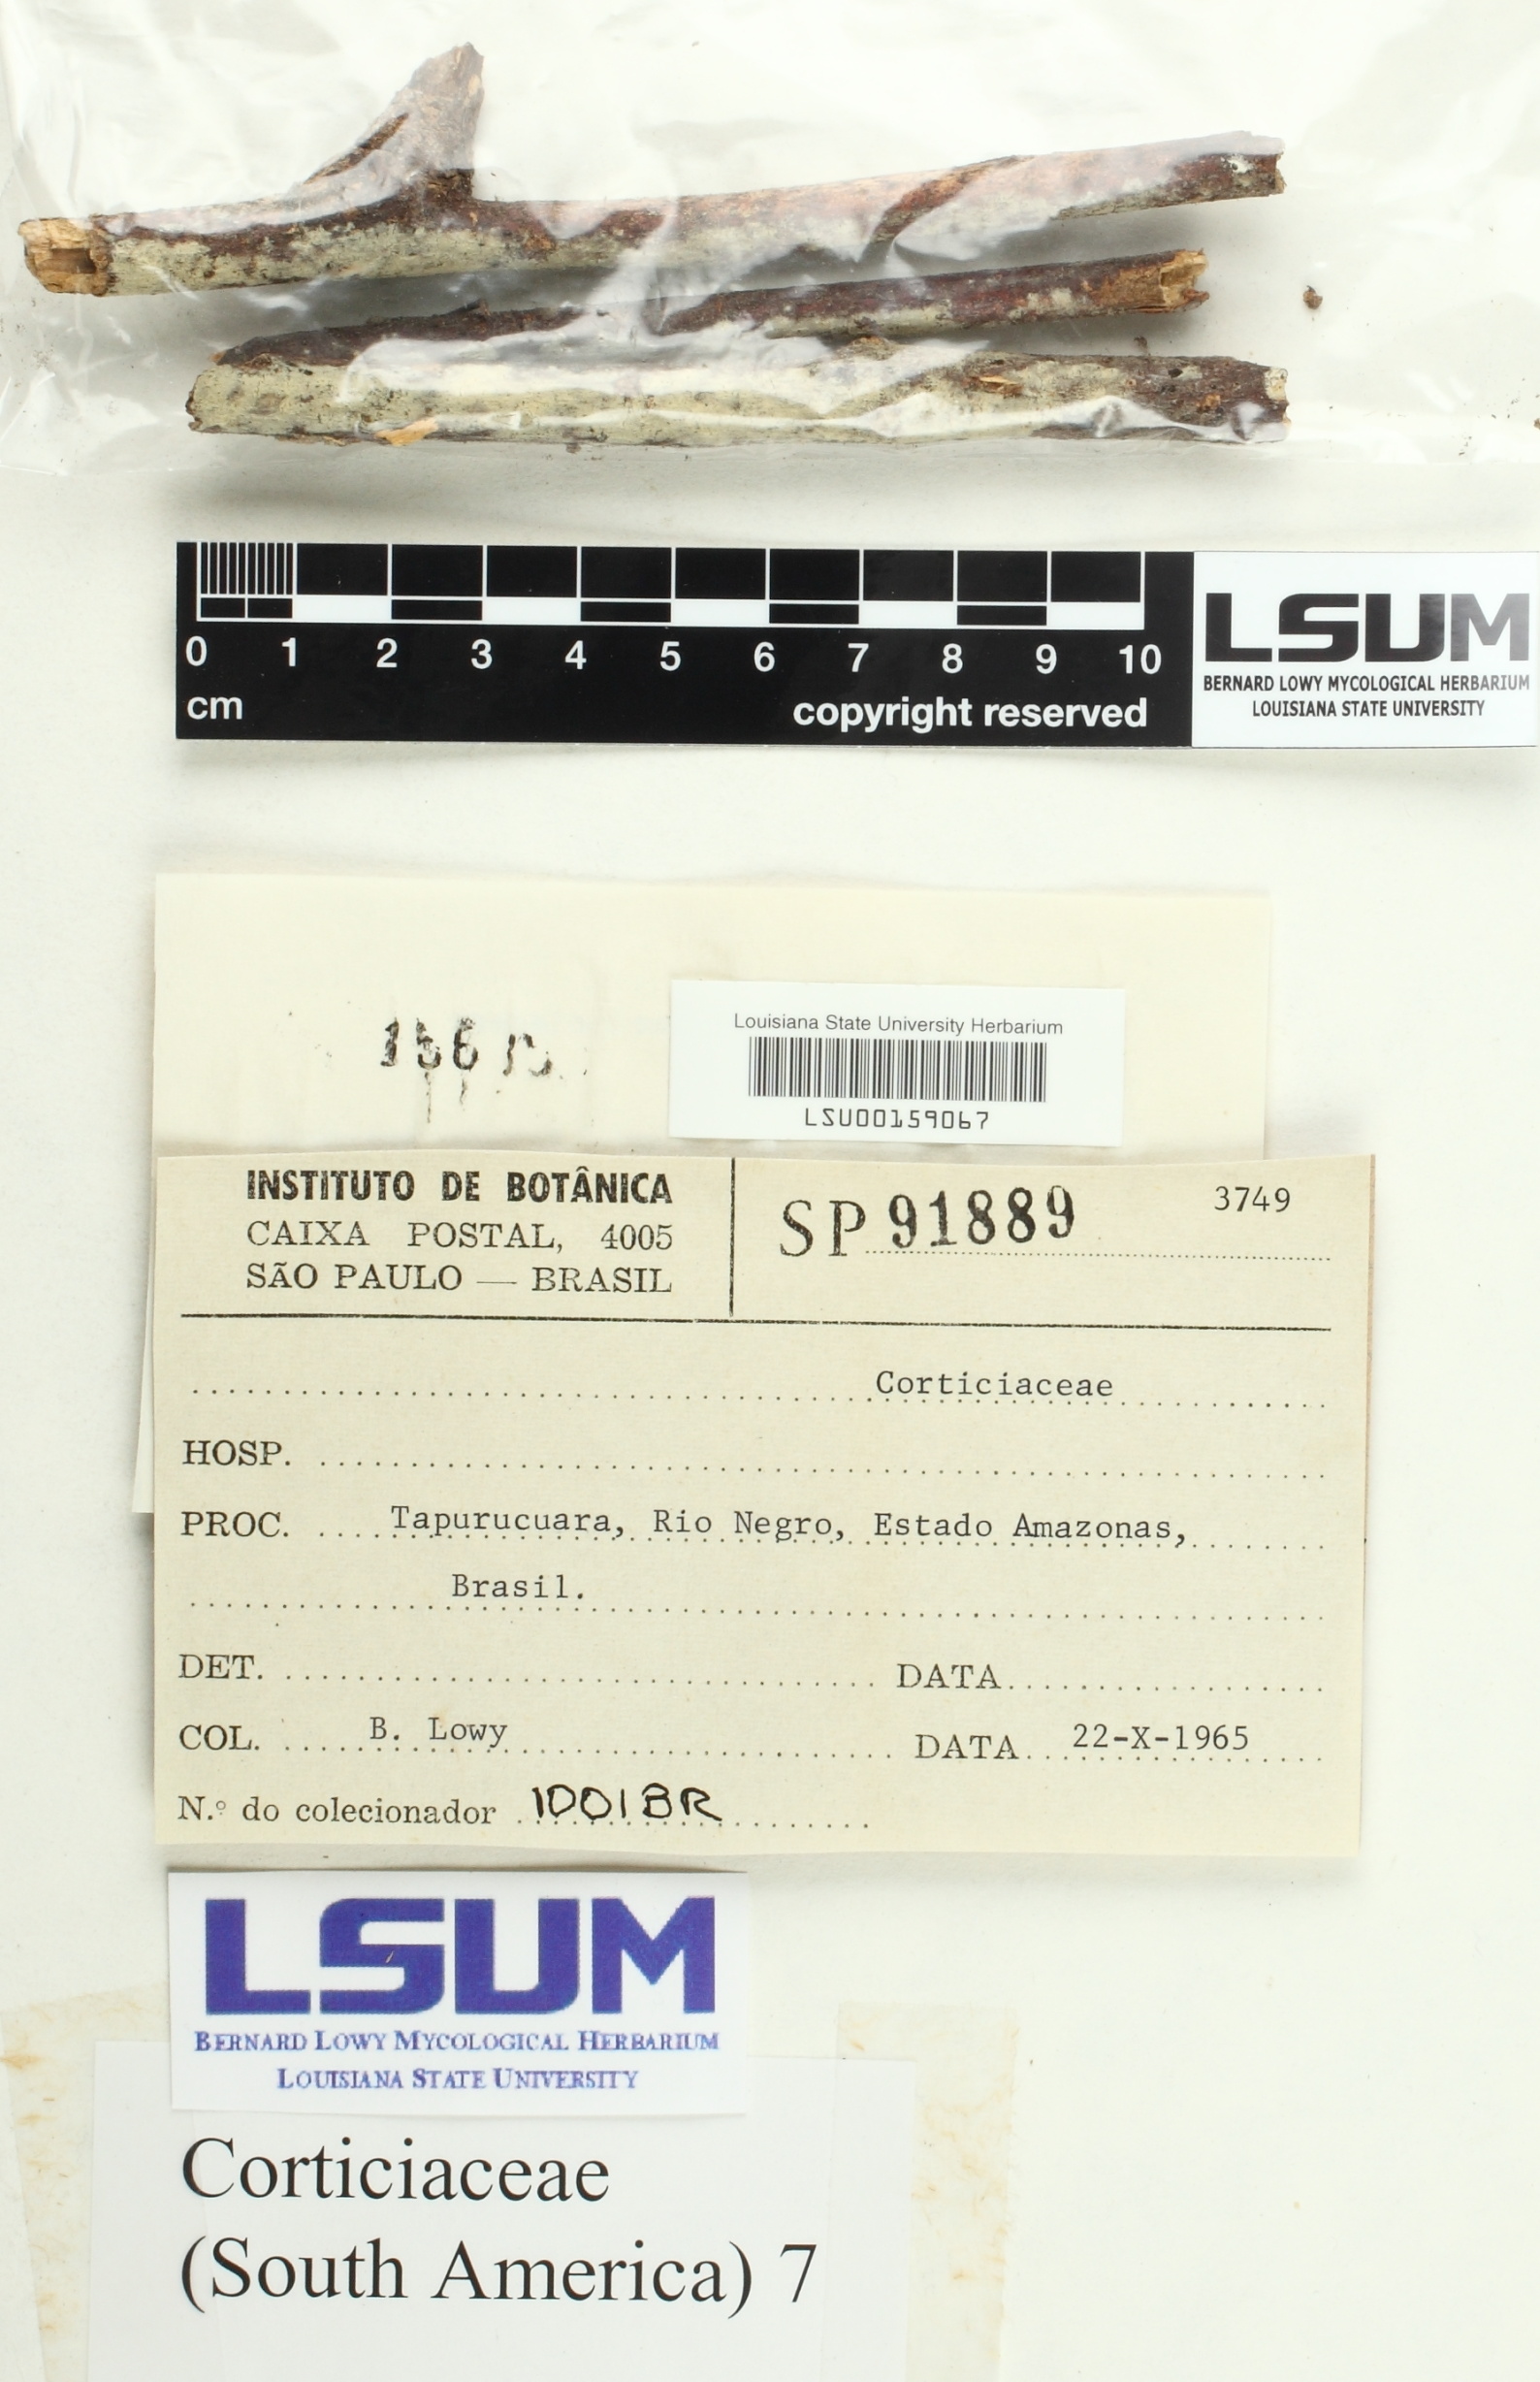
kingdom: Fungi
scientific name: Fungi
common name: Fungi
